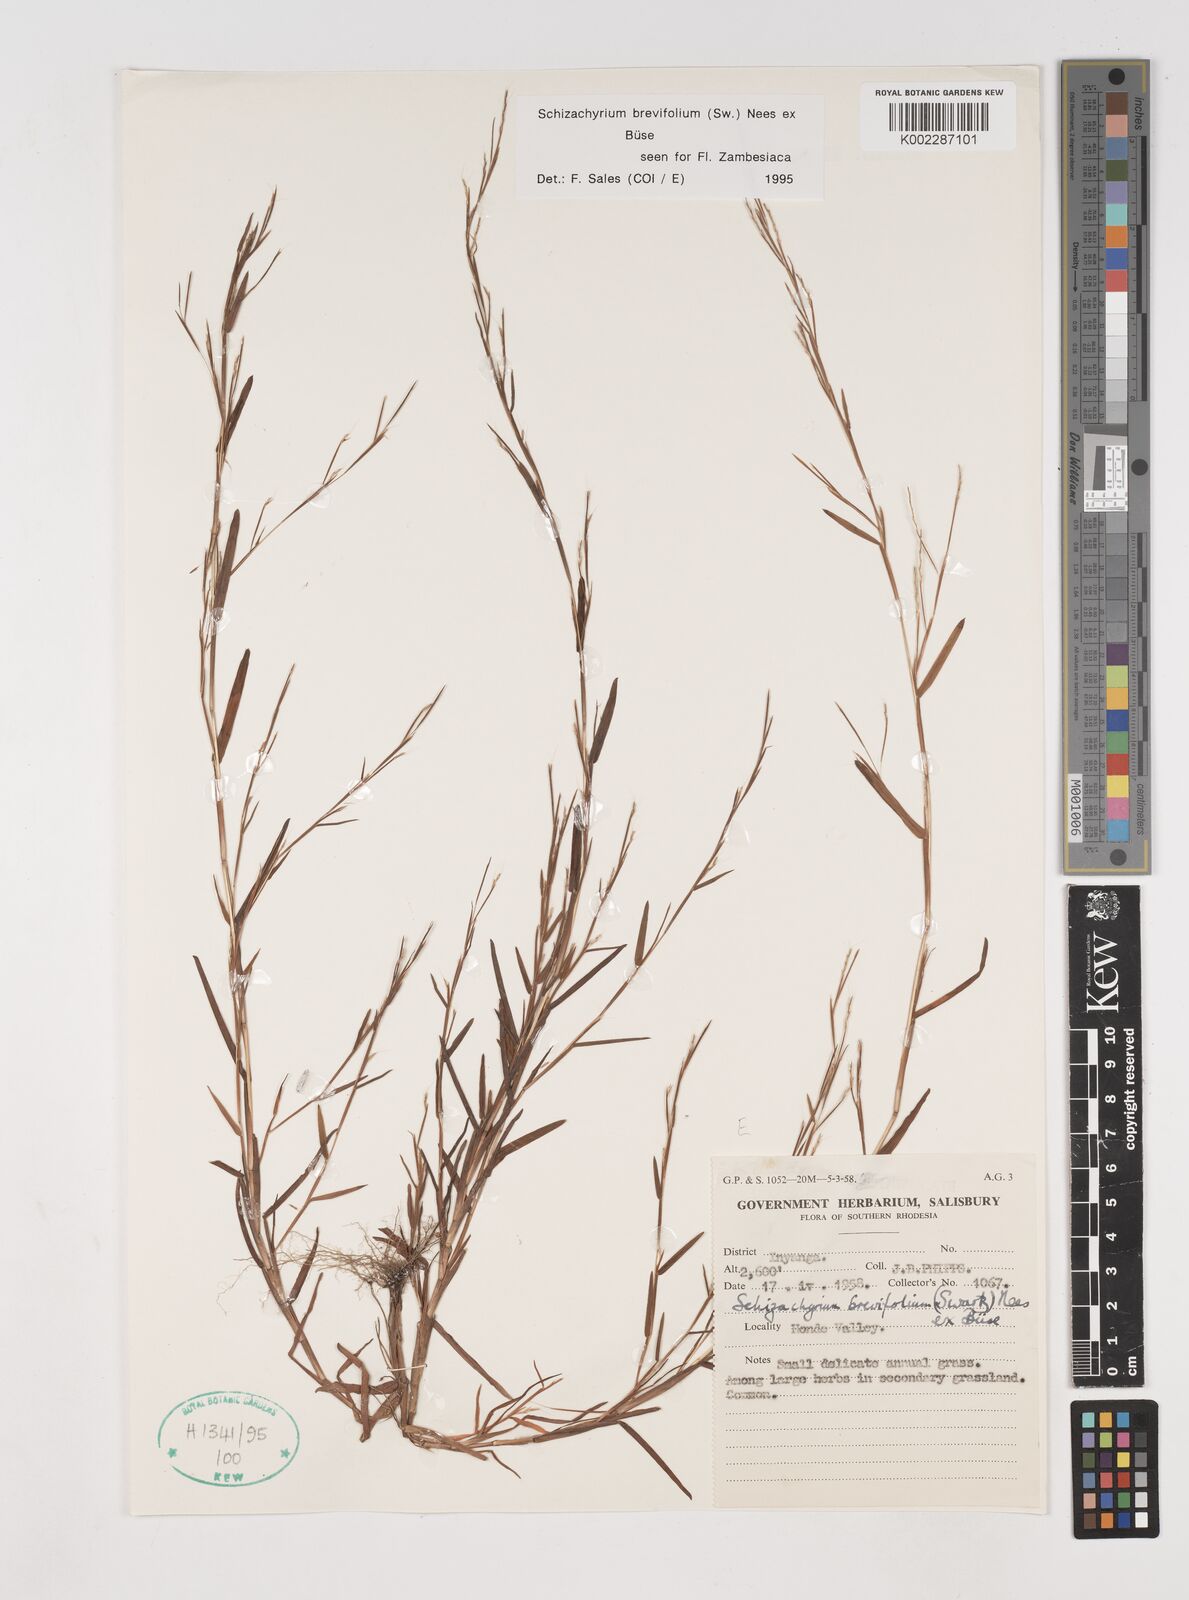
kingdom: Plantae
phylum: Tracheophyta
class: Liliopsida
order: Poales
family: Poaceae
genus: Schizachyrium
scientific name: Schizachyrium brevifolium
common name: Serillo dulce
